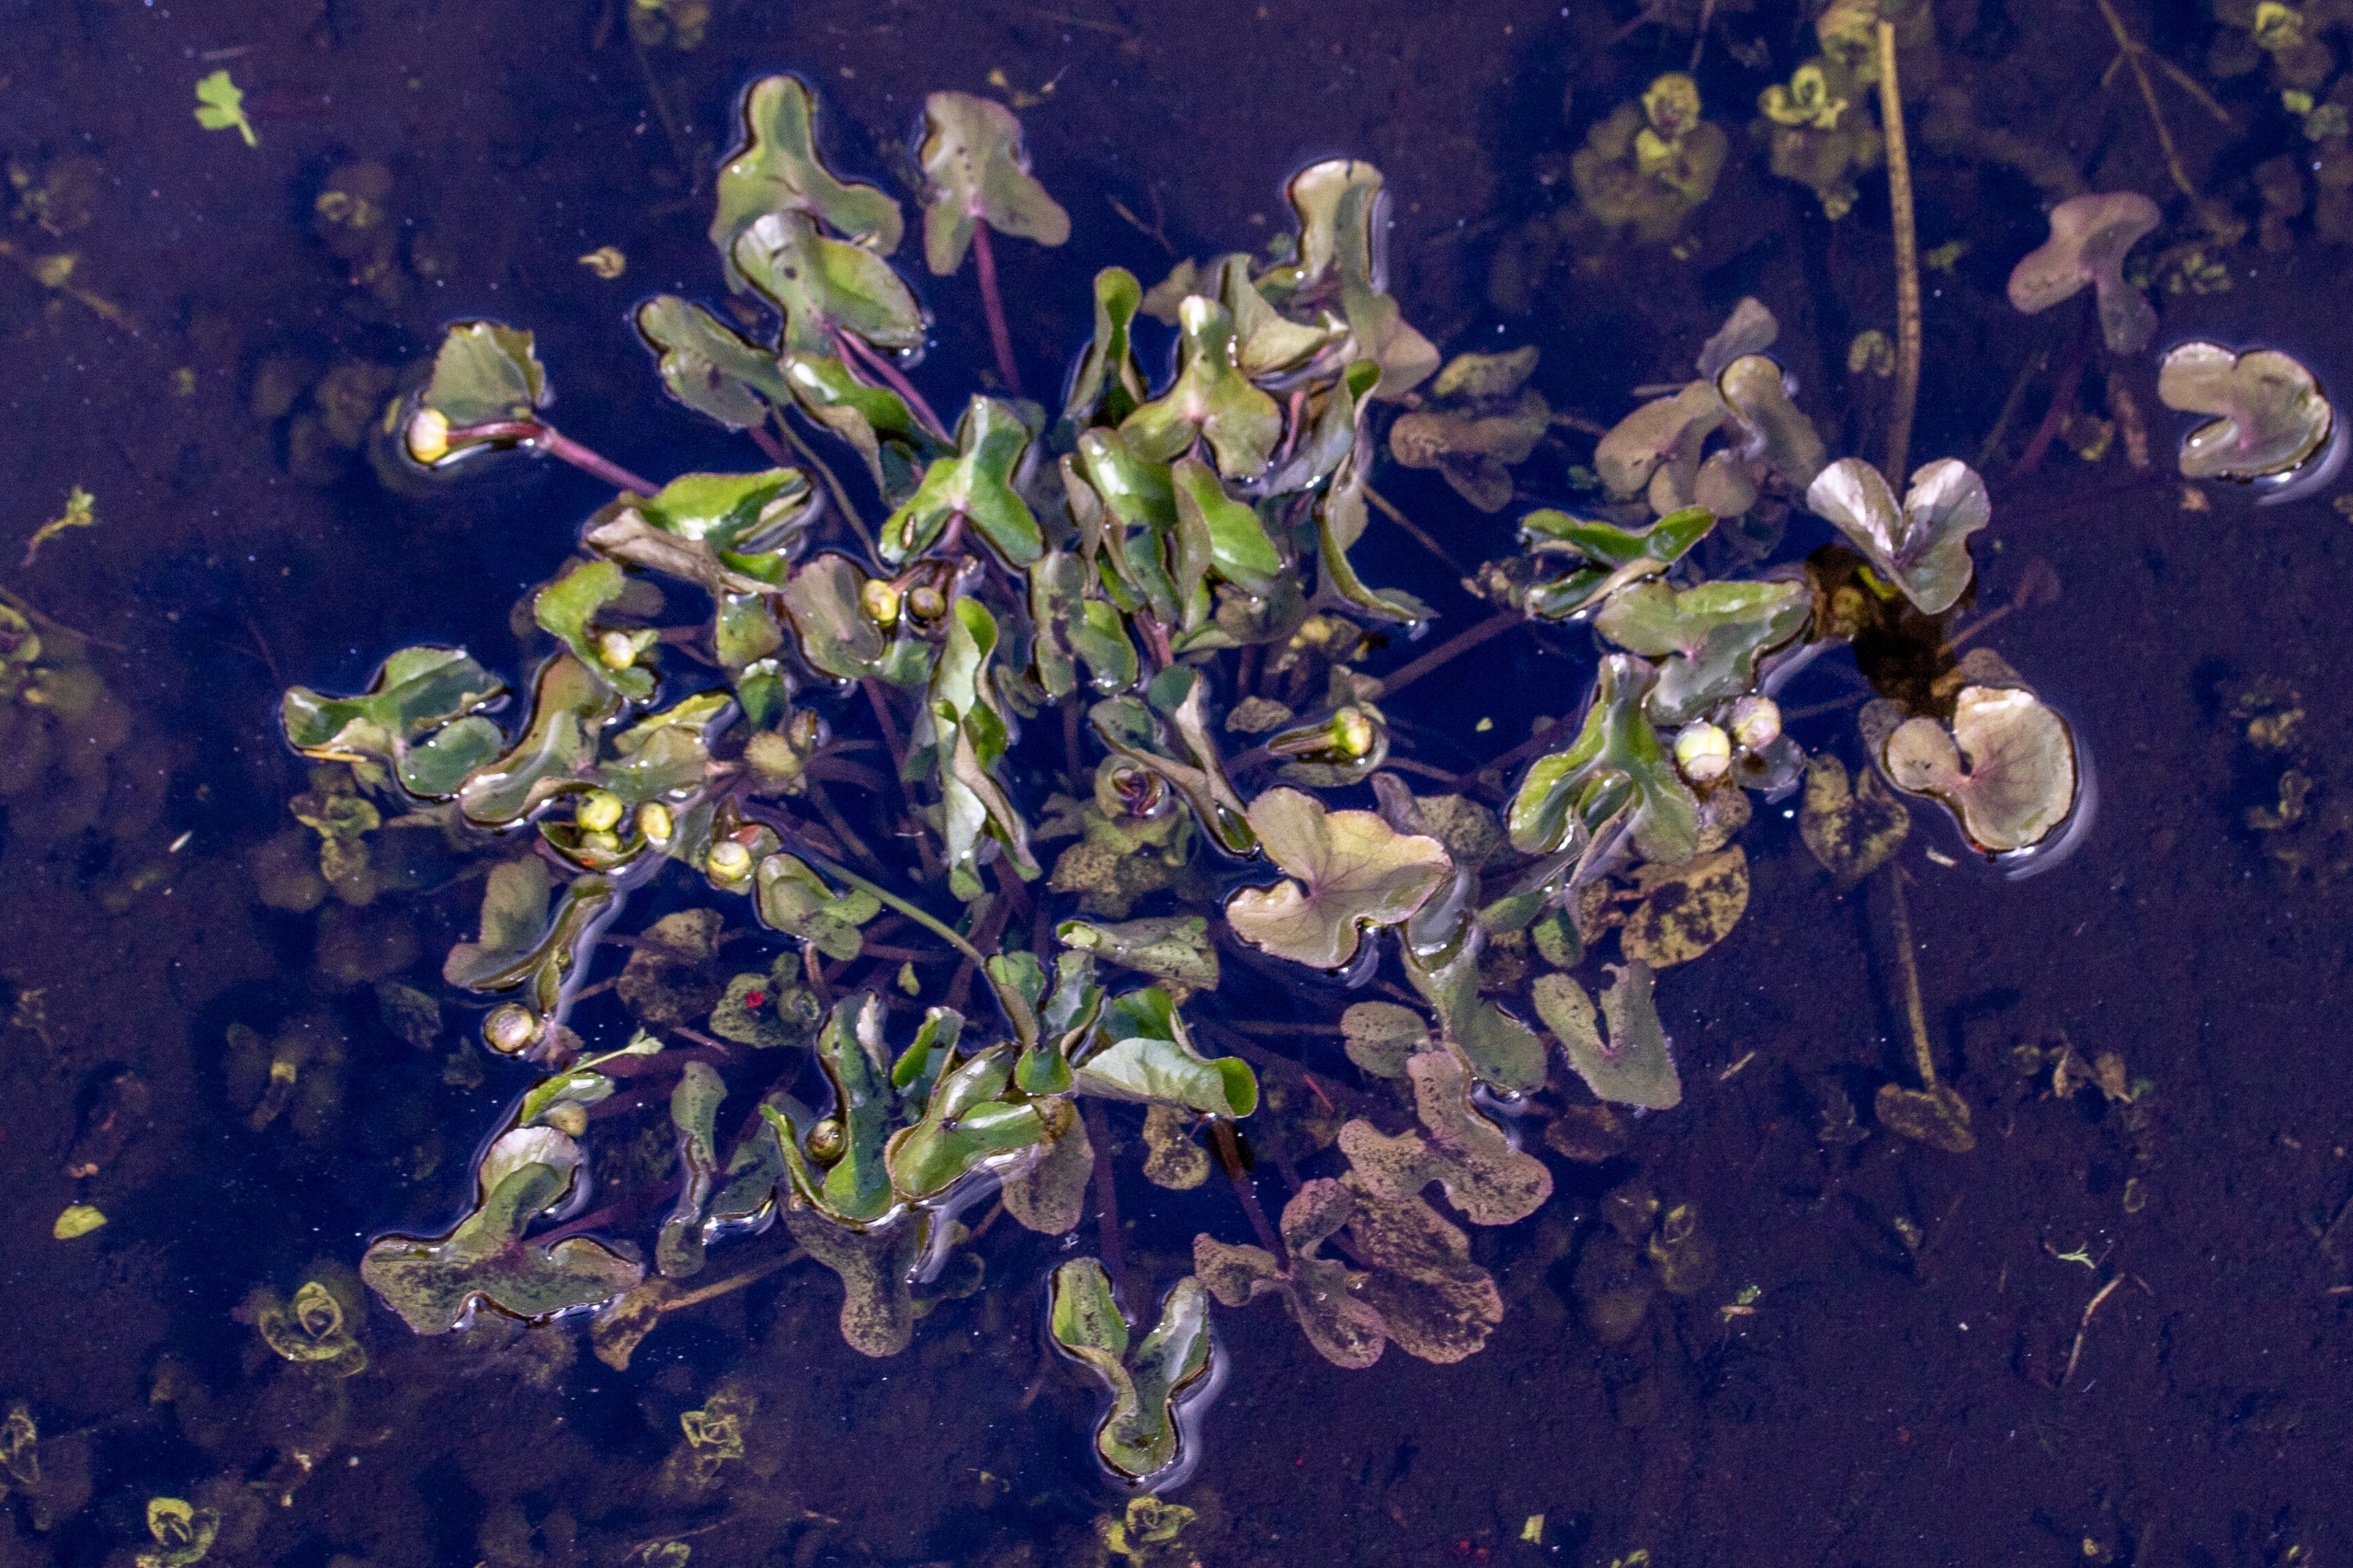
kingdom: Plantae
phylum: Tracheophyta
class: Magnoliopsida
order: Ranunculales
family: Ranunculaceae
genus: Caltha
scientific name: Caltha palustris
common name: Eng-kabbeleje
